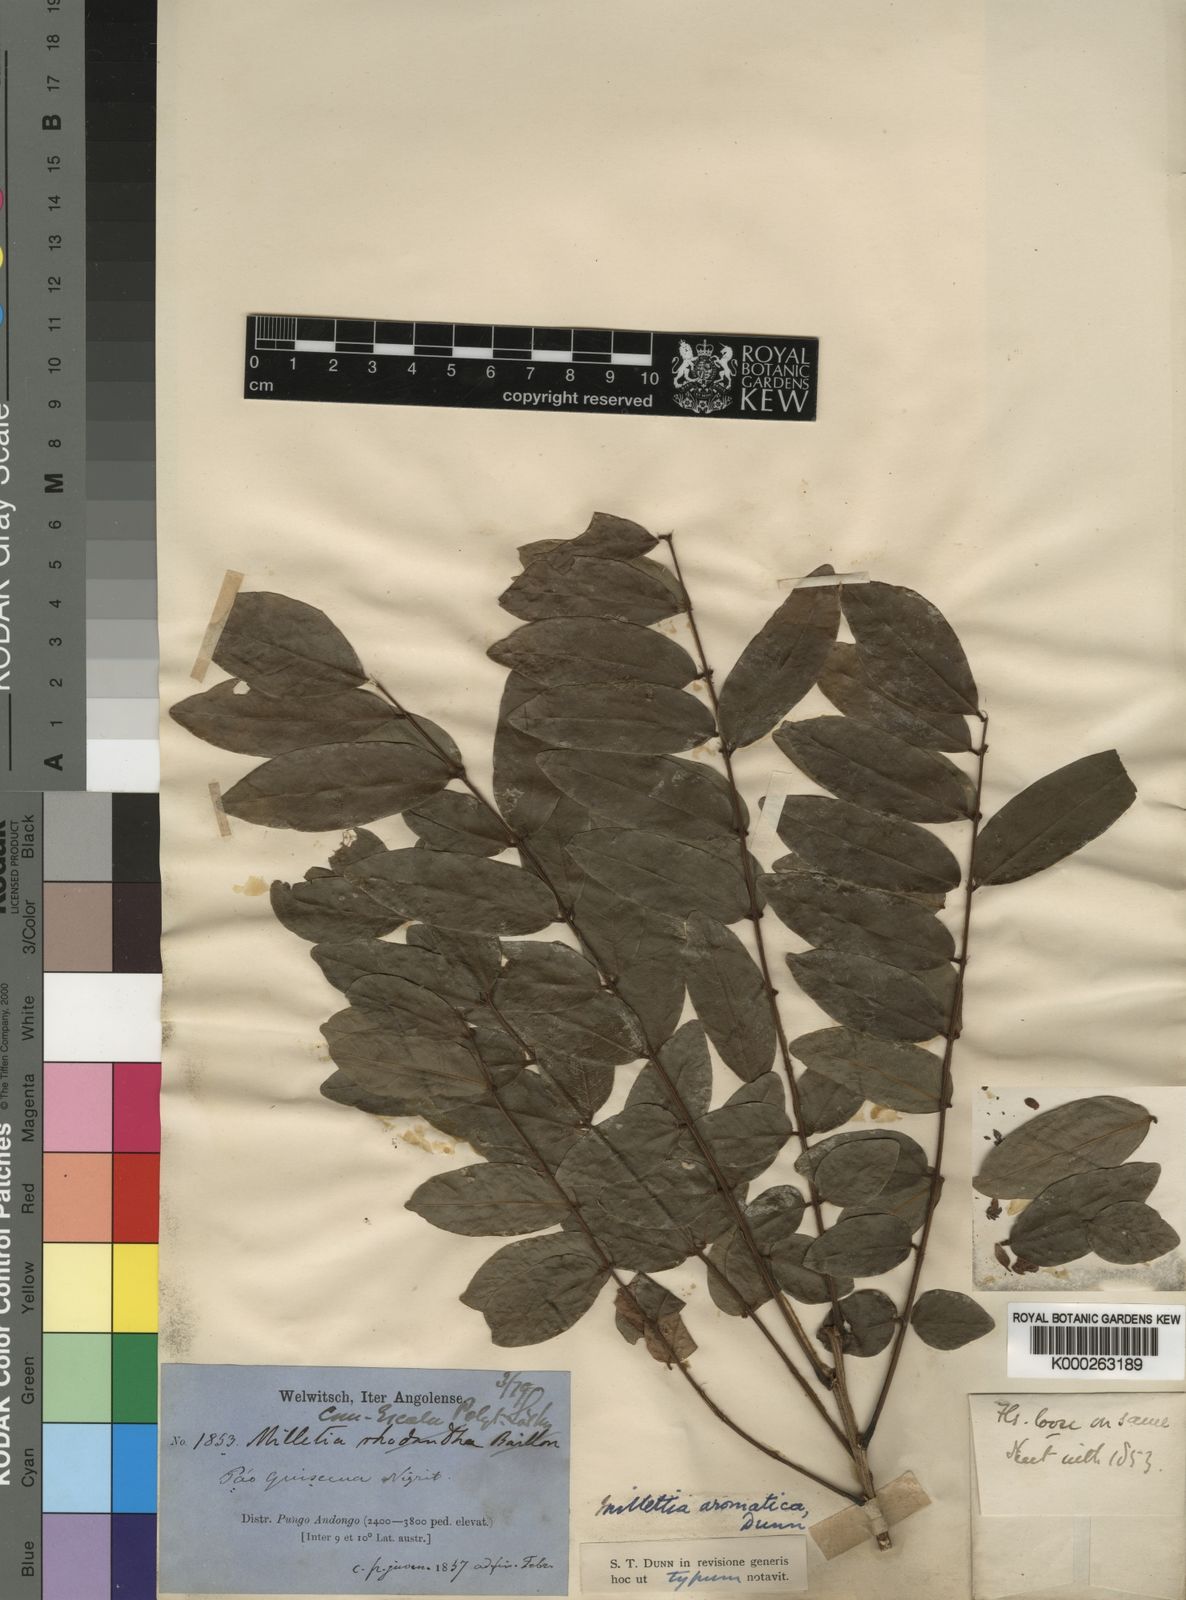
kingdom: Plantae
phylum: Tracheophyta
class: Magnoliopsida
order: Fabales
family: Fabaceae
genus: Millettia
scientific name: Millettia aromatica
